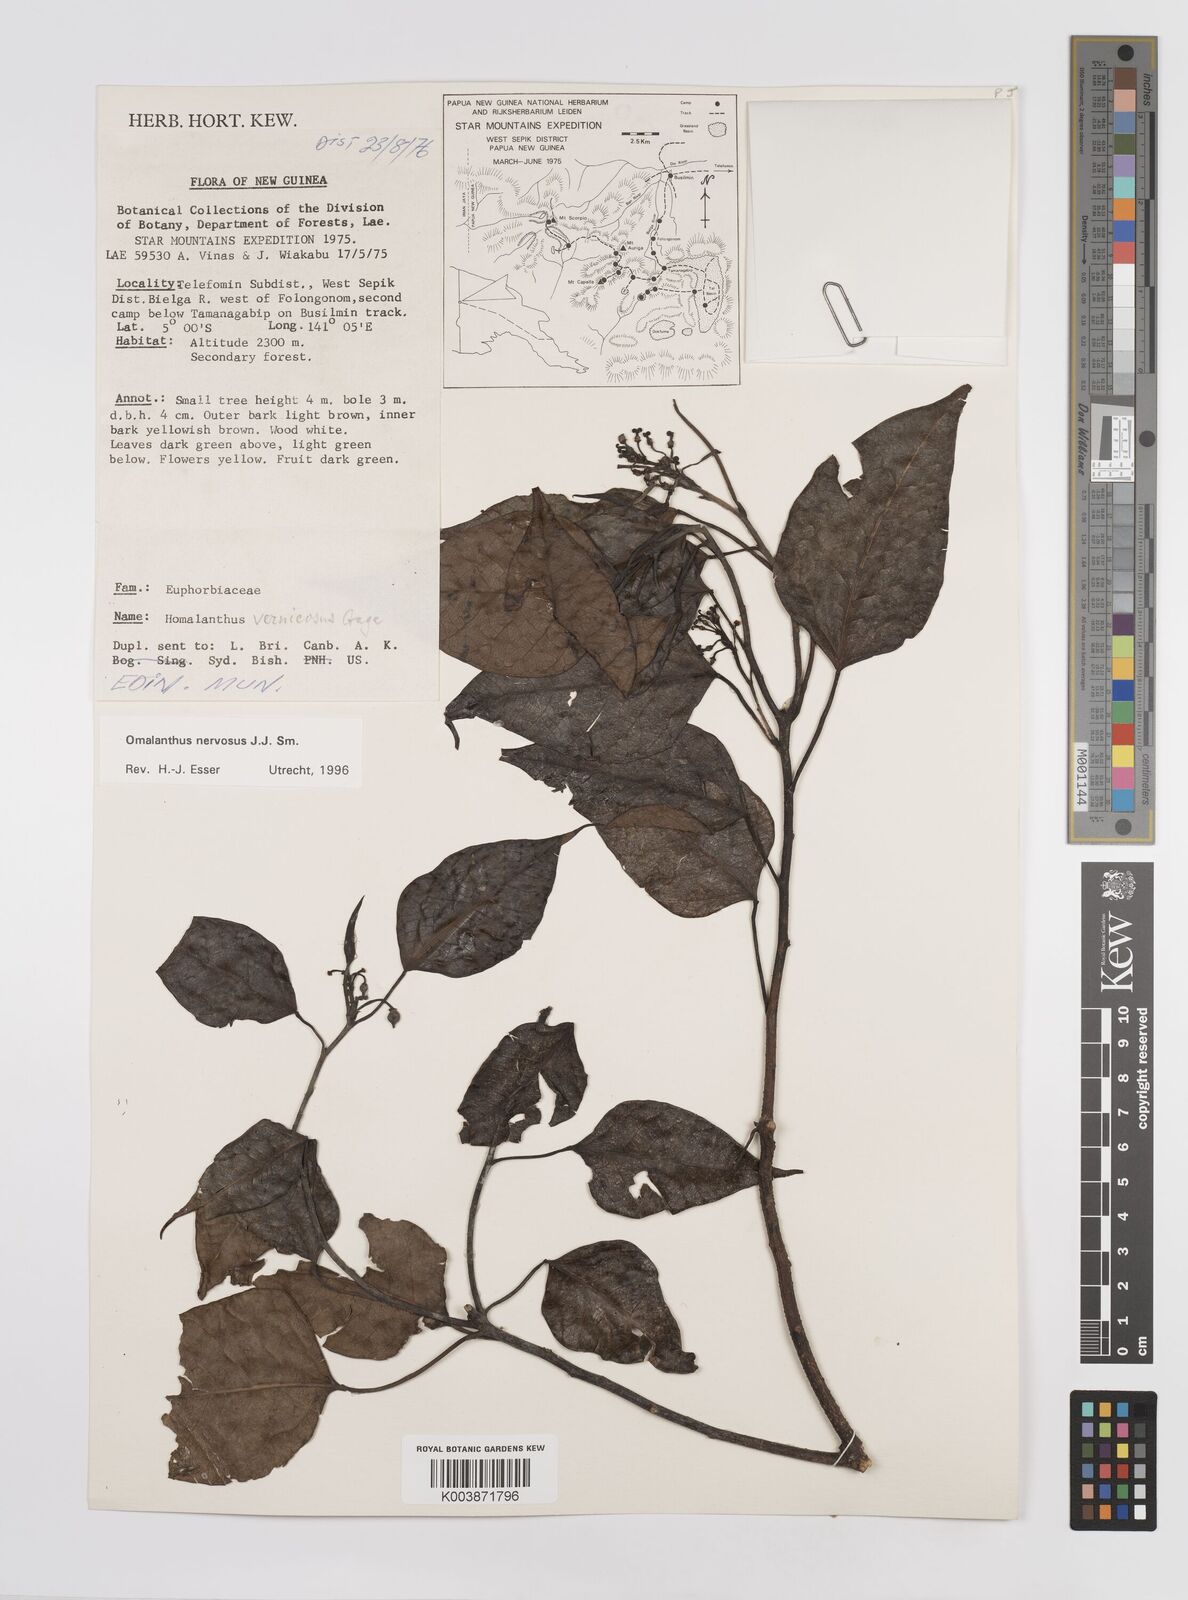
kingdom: Plantae
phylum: Tracheophyta
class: Magnoliopsida
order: Malpighiales
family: Euphorbiaceae
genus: Homalanthus
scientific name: Homalanthus nervosus
